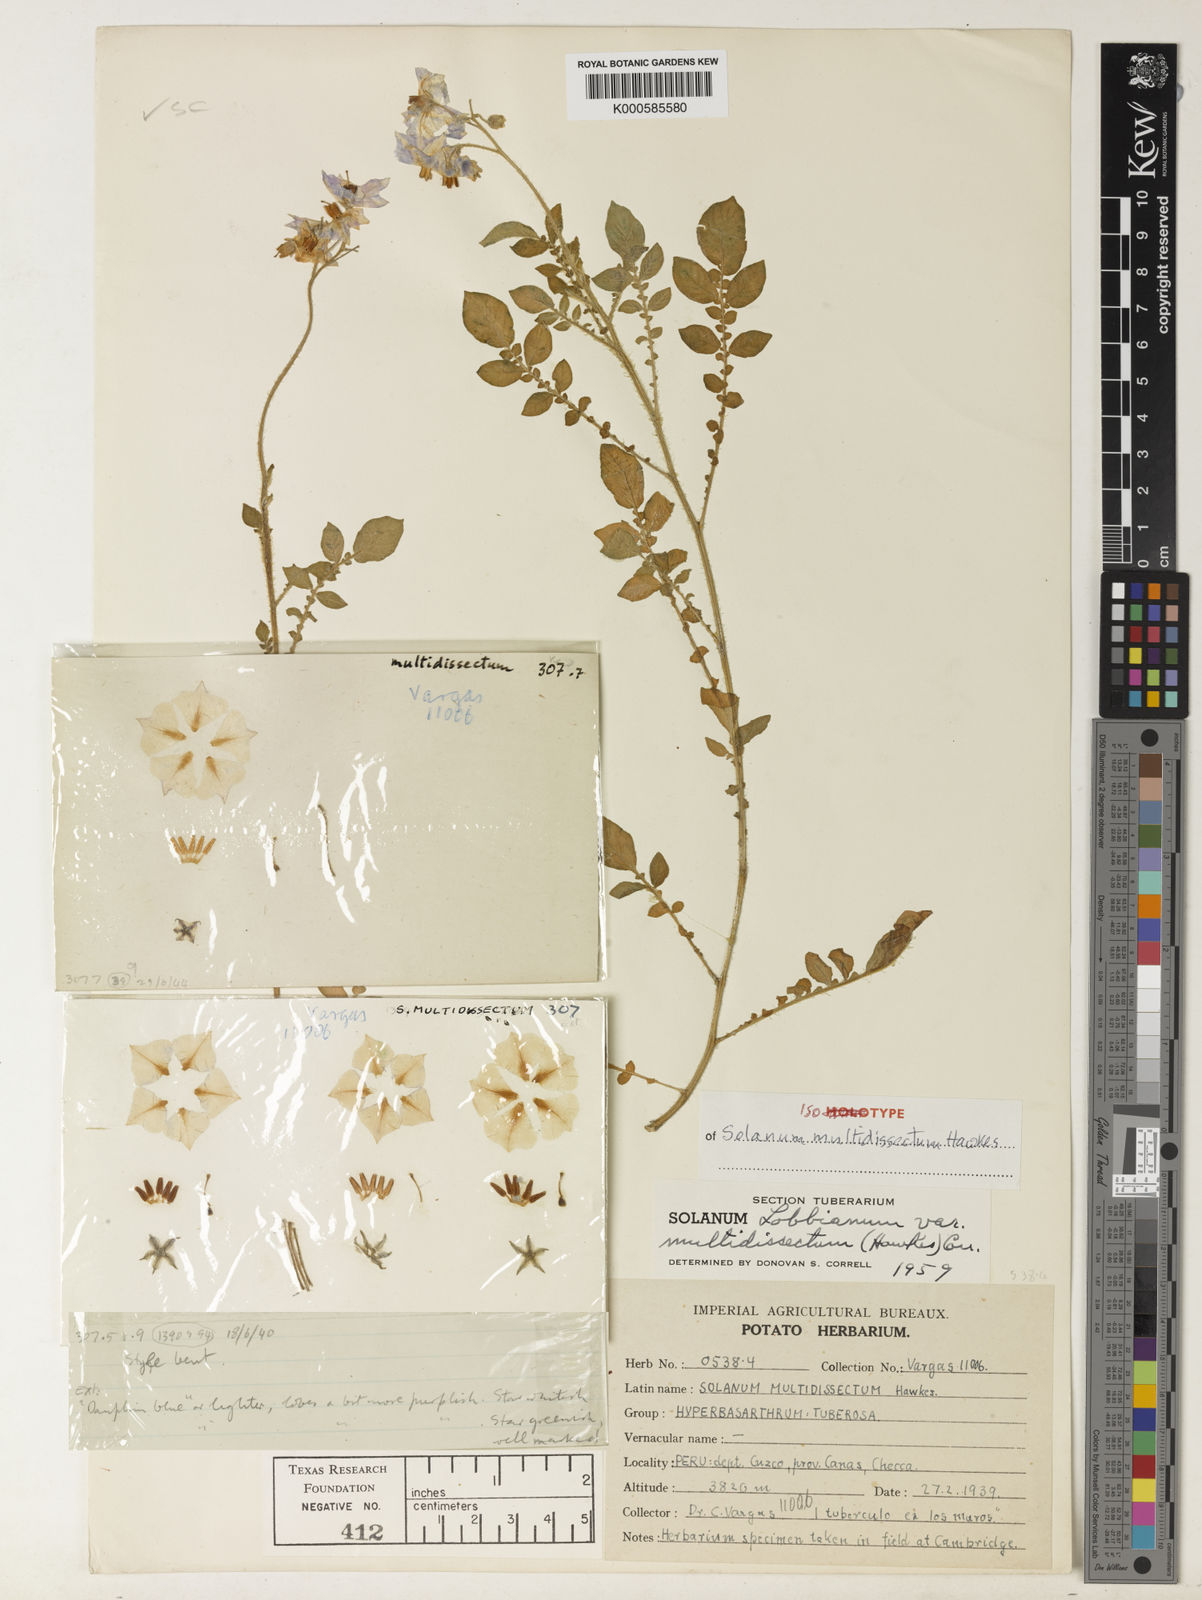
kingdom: Plantae
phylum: Tracheophyta
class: Magnoliopsida
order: Solanales
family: Solanaceae
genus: Solanum
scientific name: Solanum candolleanum
